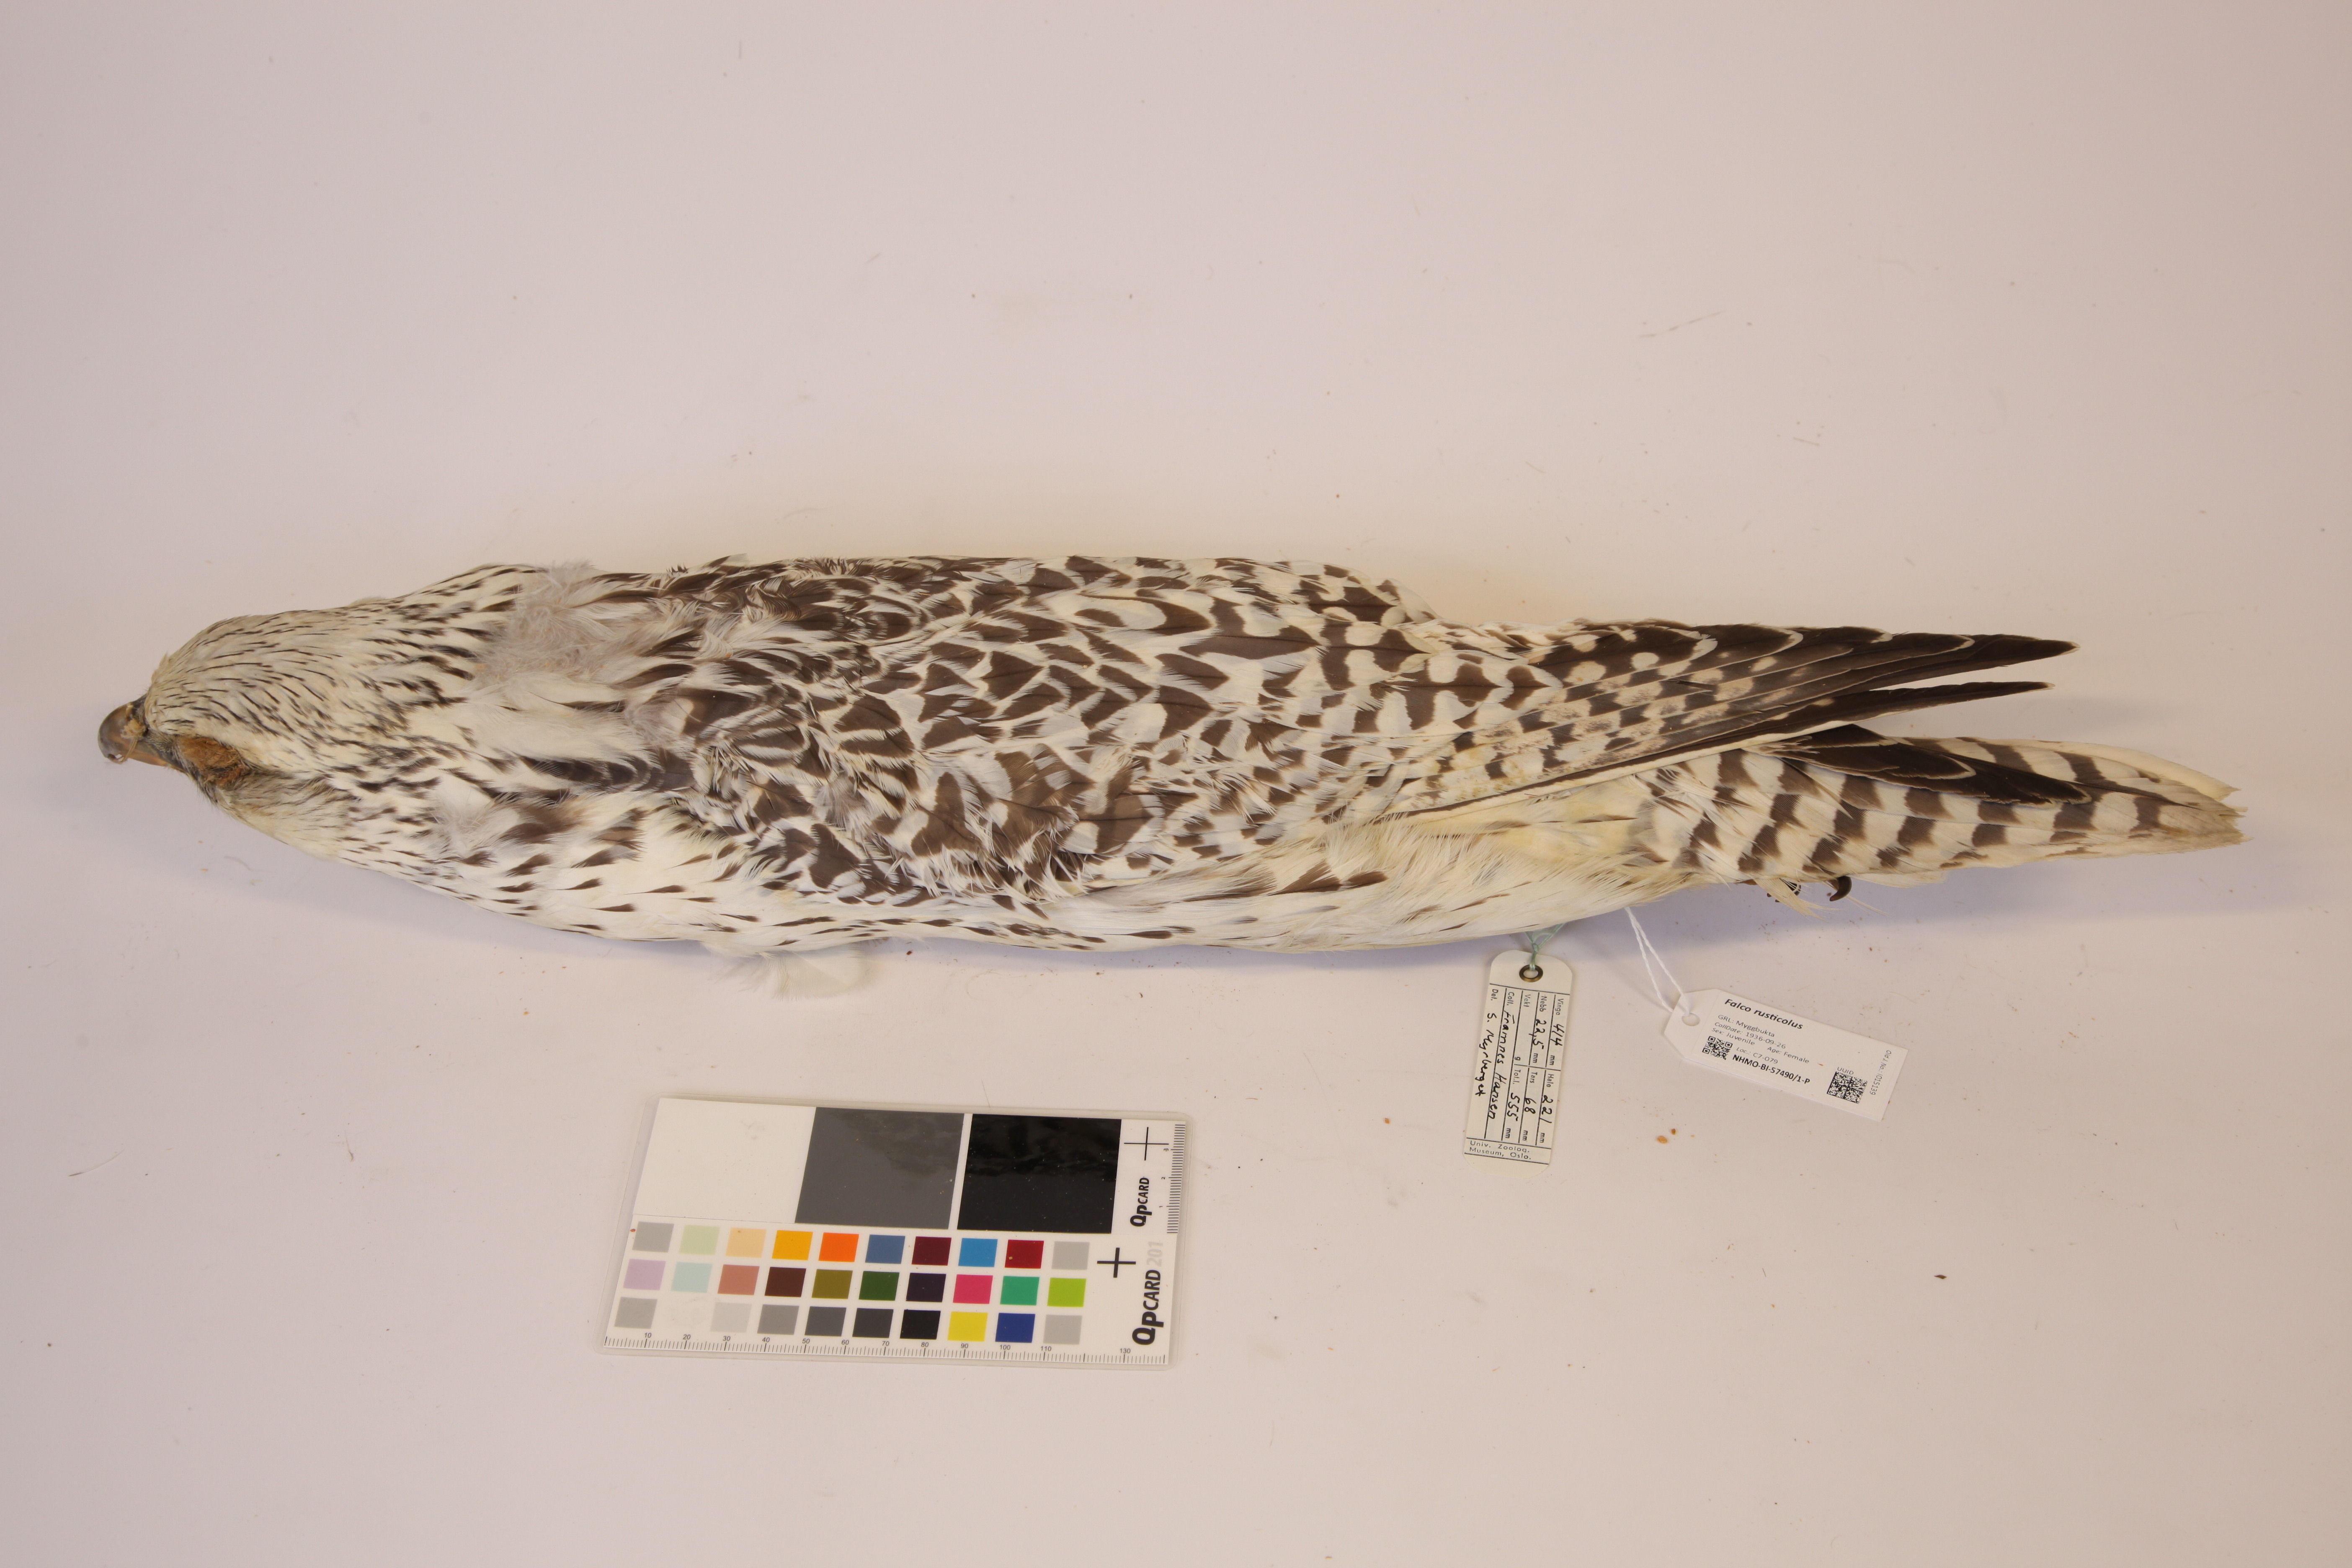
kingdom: Animalia
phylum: Chordata
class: Aves
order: Falconiformes
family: Falconidae
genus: Falco
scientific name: Falco rusticolus
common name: Gyrfalcon
